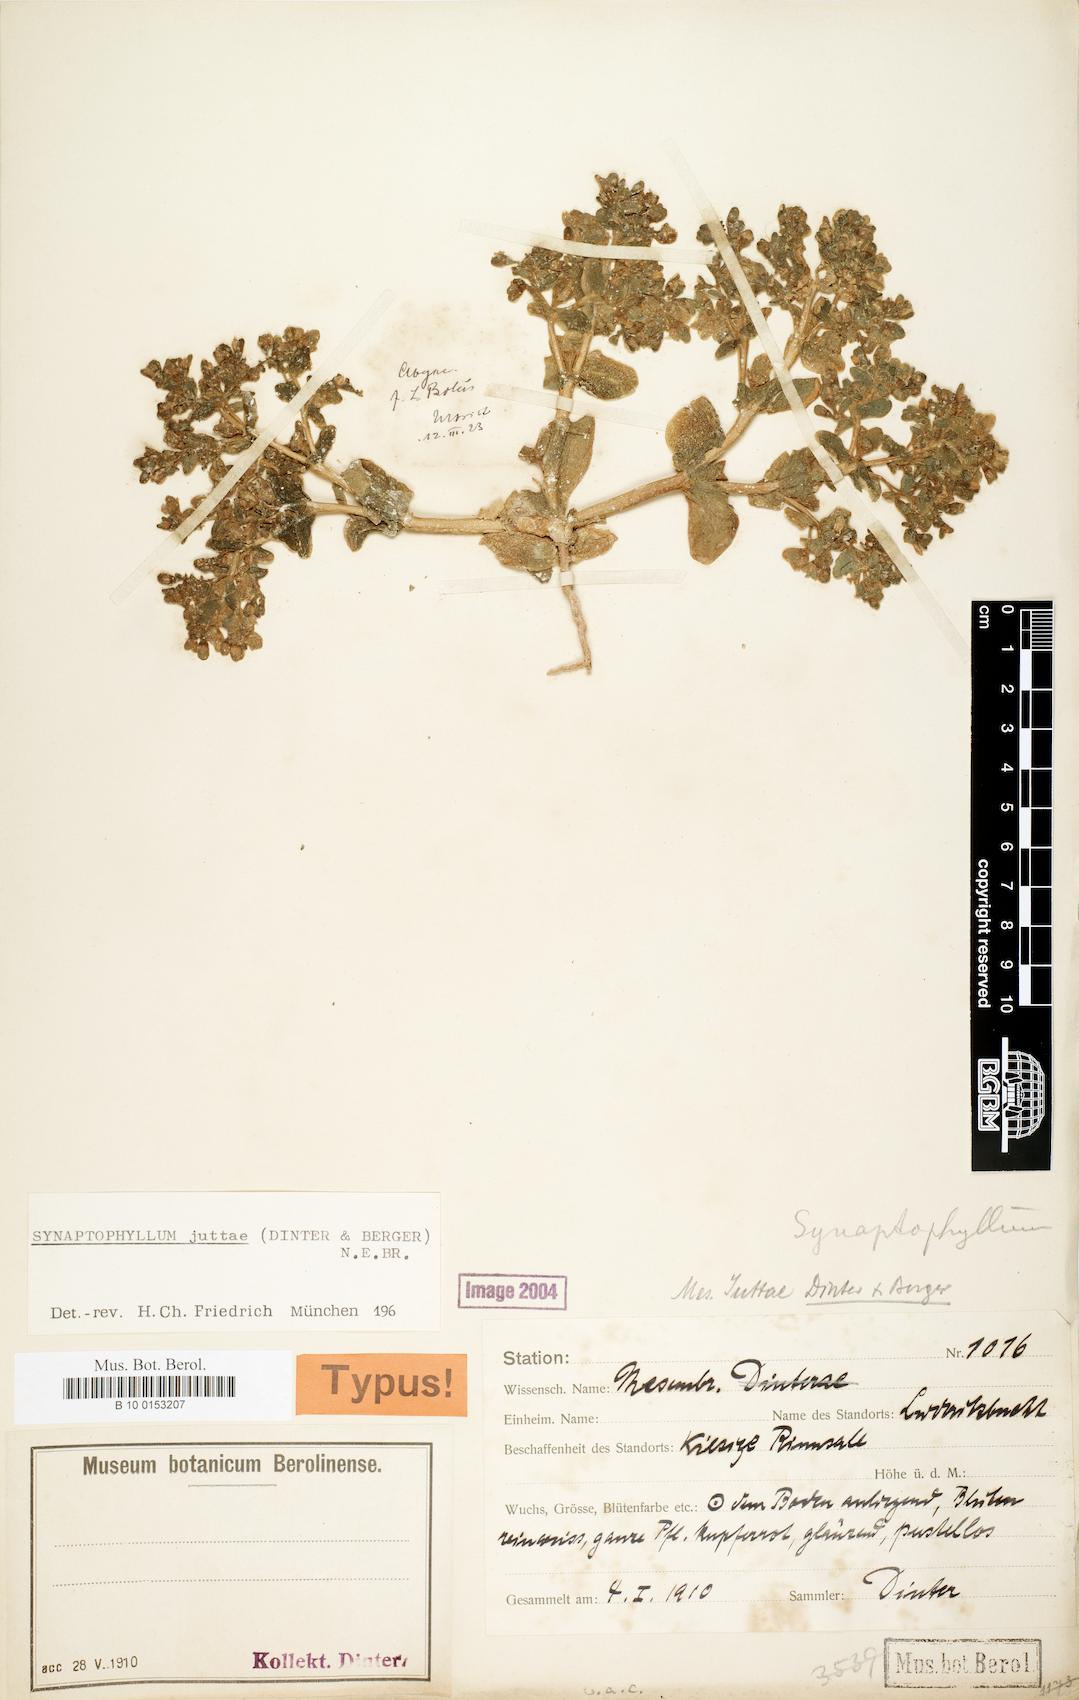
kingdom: Plantae
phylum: Tracheophyta
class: Magnoliopsida
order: Caryophyllales
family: Aizoaceae
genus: Mesembryanthemum
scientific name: Mesembryanthemum juttae
